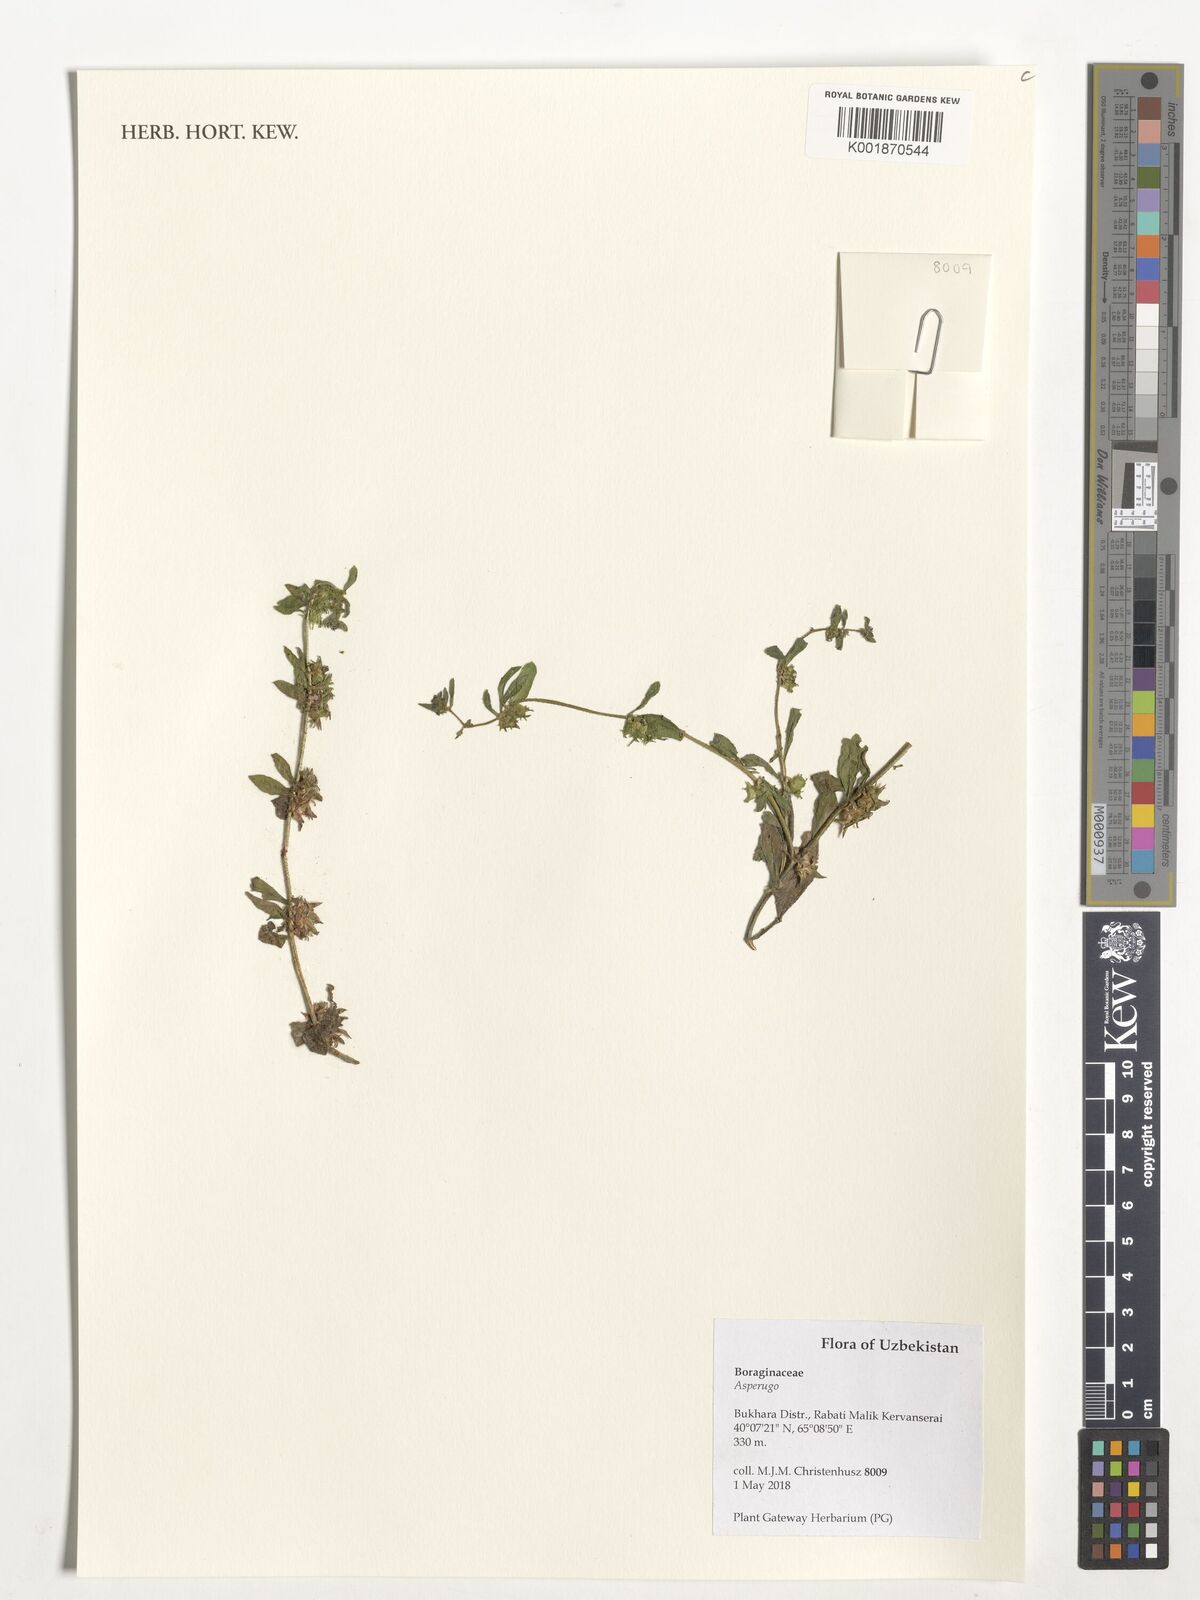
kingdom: Plantae
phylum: Tracheophyta
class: Magnoliopsida
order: Boraginales
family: Boraginaceae
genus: Asperugo
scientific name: Asperugo
